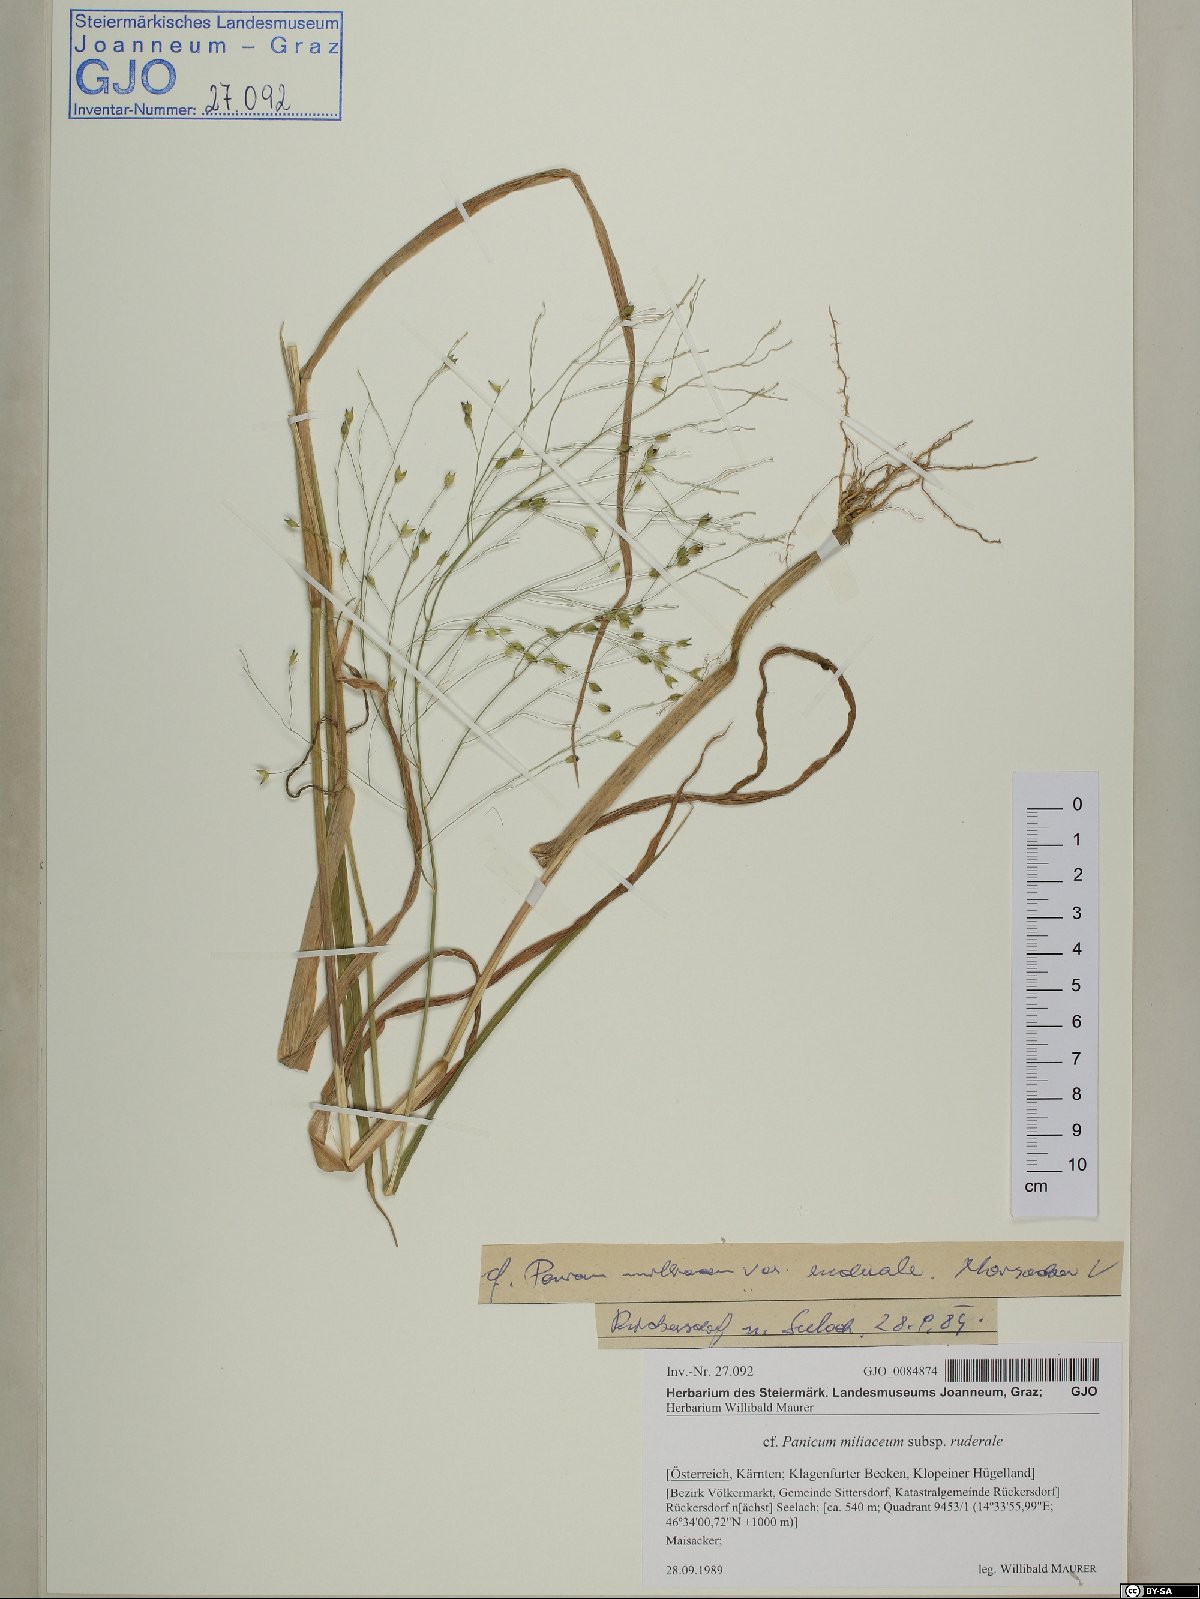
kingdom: Plantae
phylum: Tracheophyta
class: Liliopsida
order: Poales
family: Poaceae
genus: Panicum
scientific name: Panicum miliaceum
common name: Common millet
